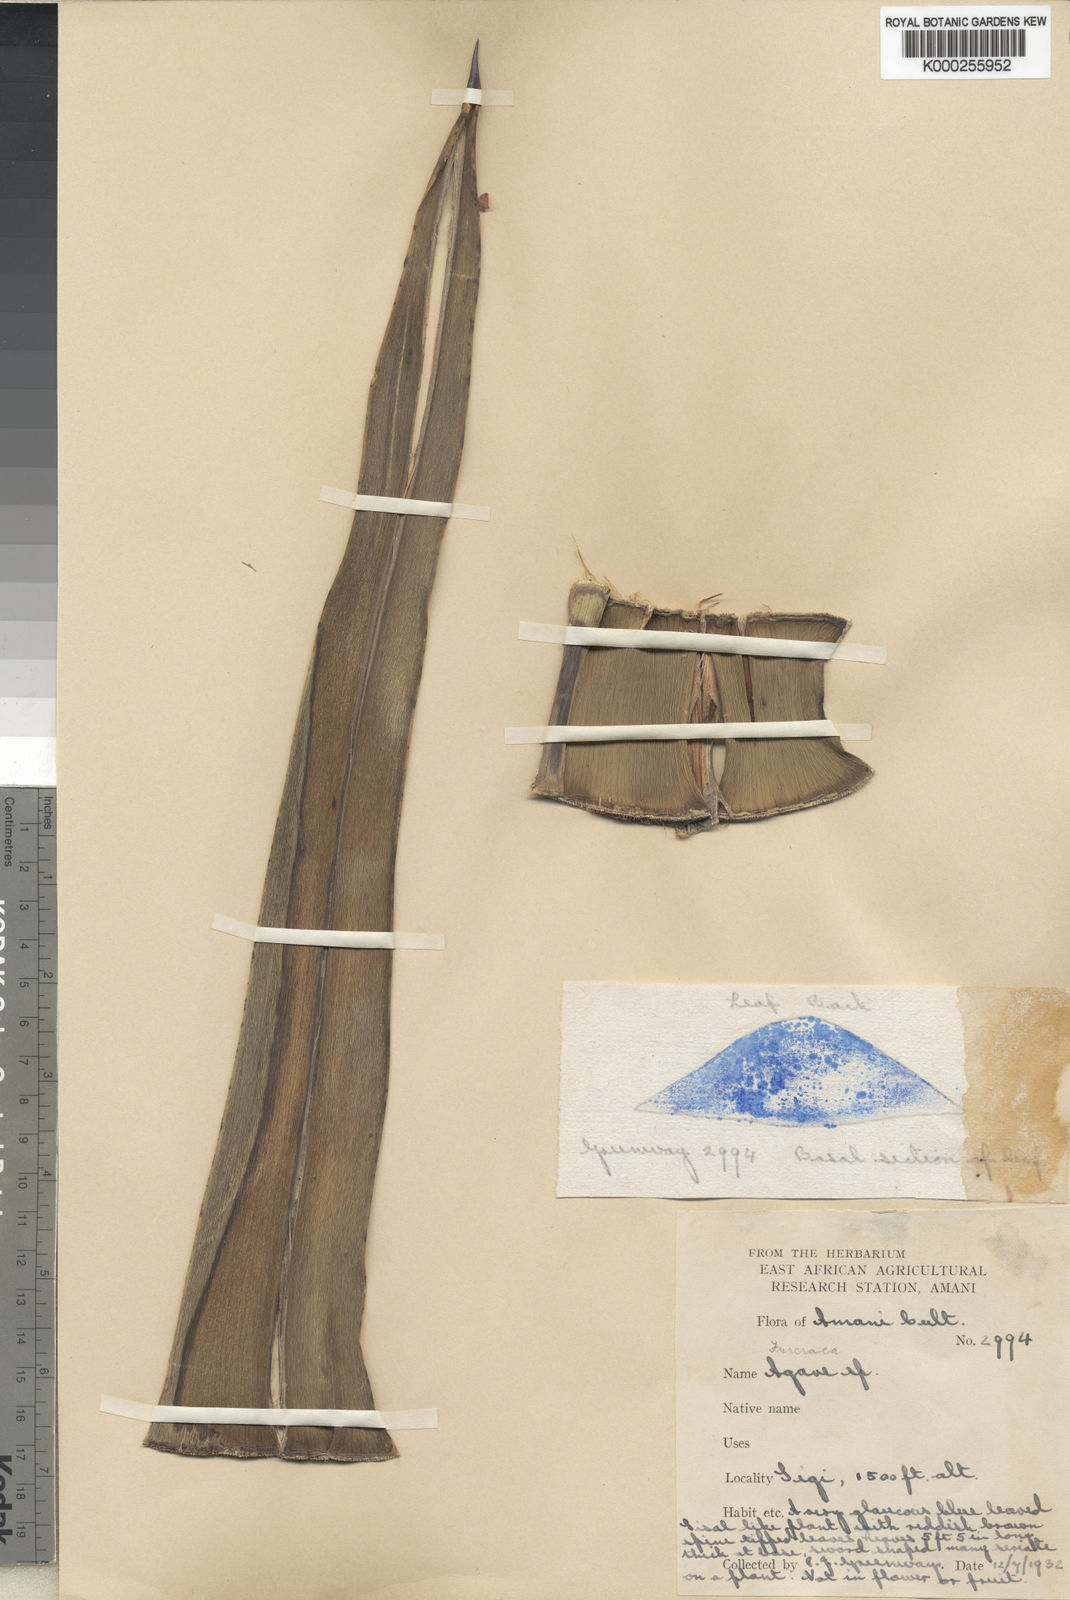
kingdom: Plantae
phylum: Tracheophyta
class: Liliopsida
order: Asparagales
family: Asparagaceae
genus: Agave
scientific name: Agave sisalana
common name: Sisal hemp
